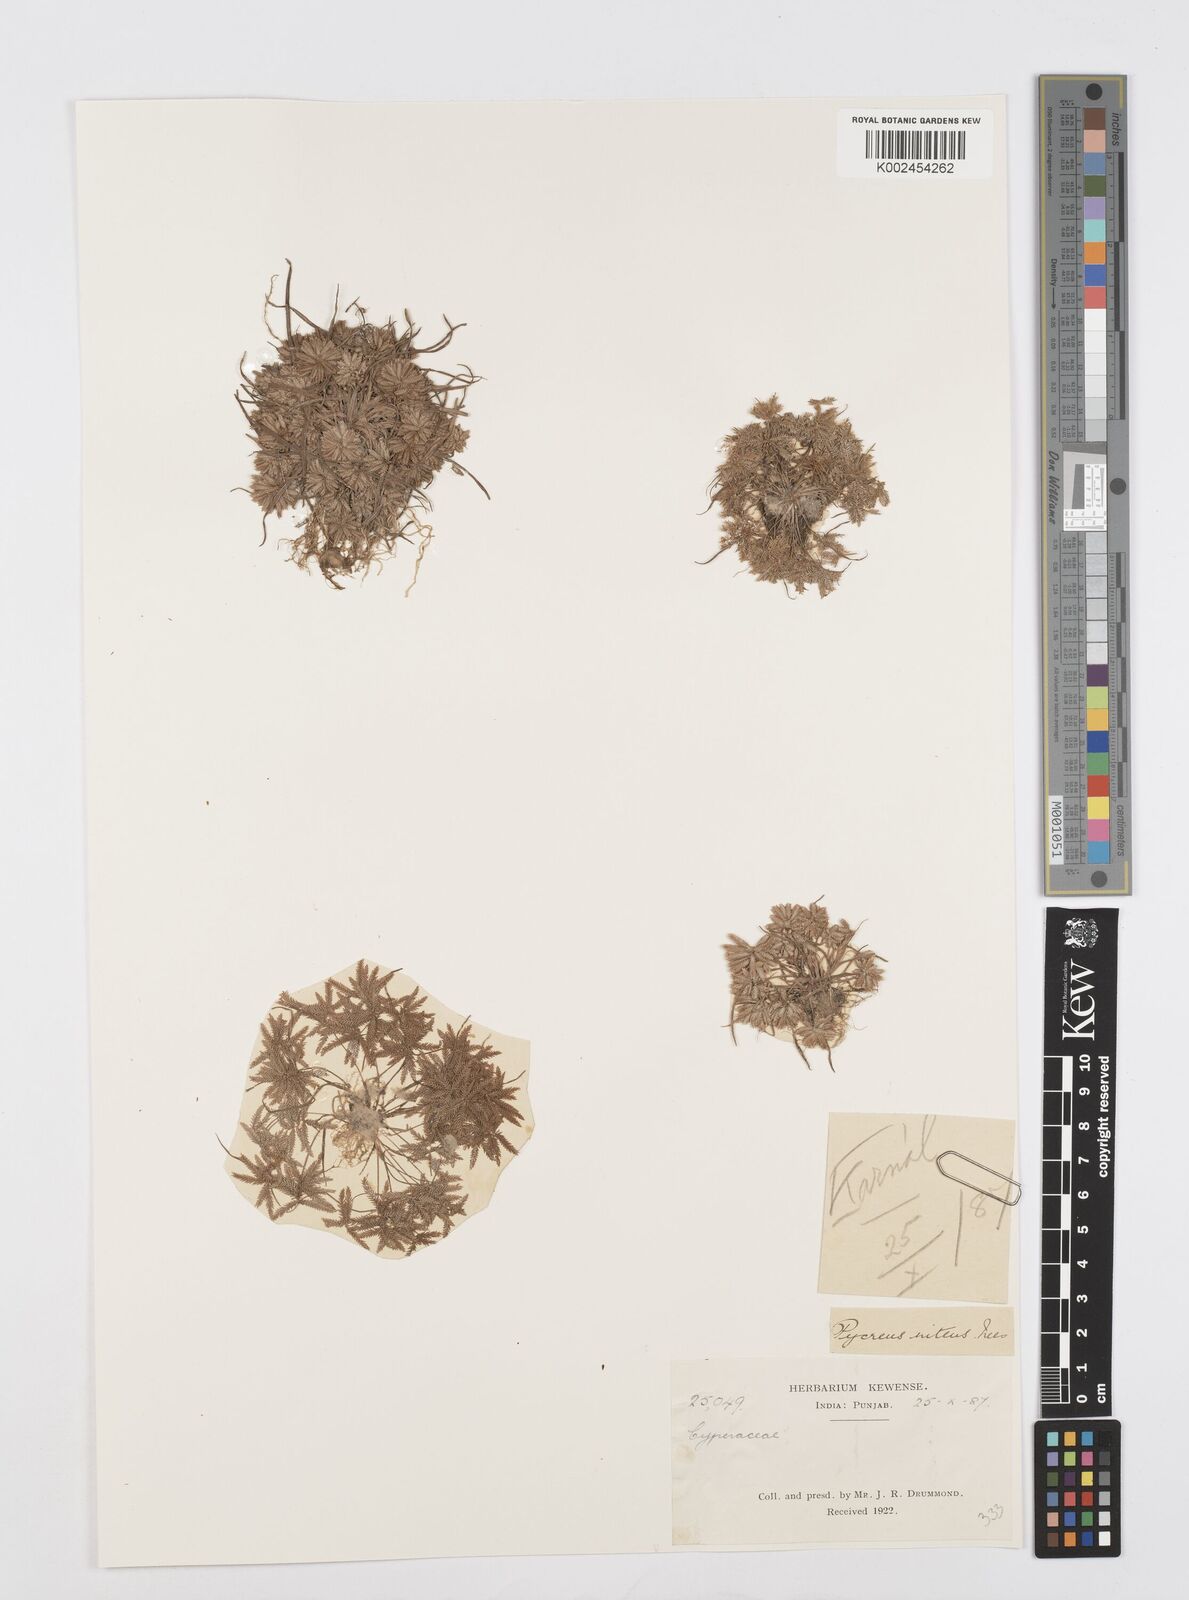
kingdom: Plantae
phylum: Tracheophyta
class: Liliopsida
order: Poales
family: Cyperaceae
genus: Cyperus
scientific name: Cyperus pumilus
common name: Low flatsedge
